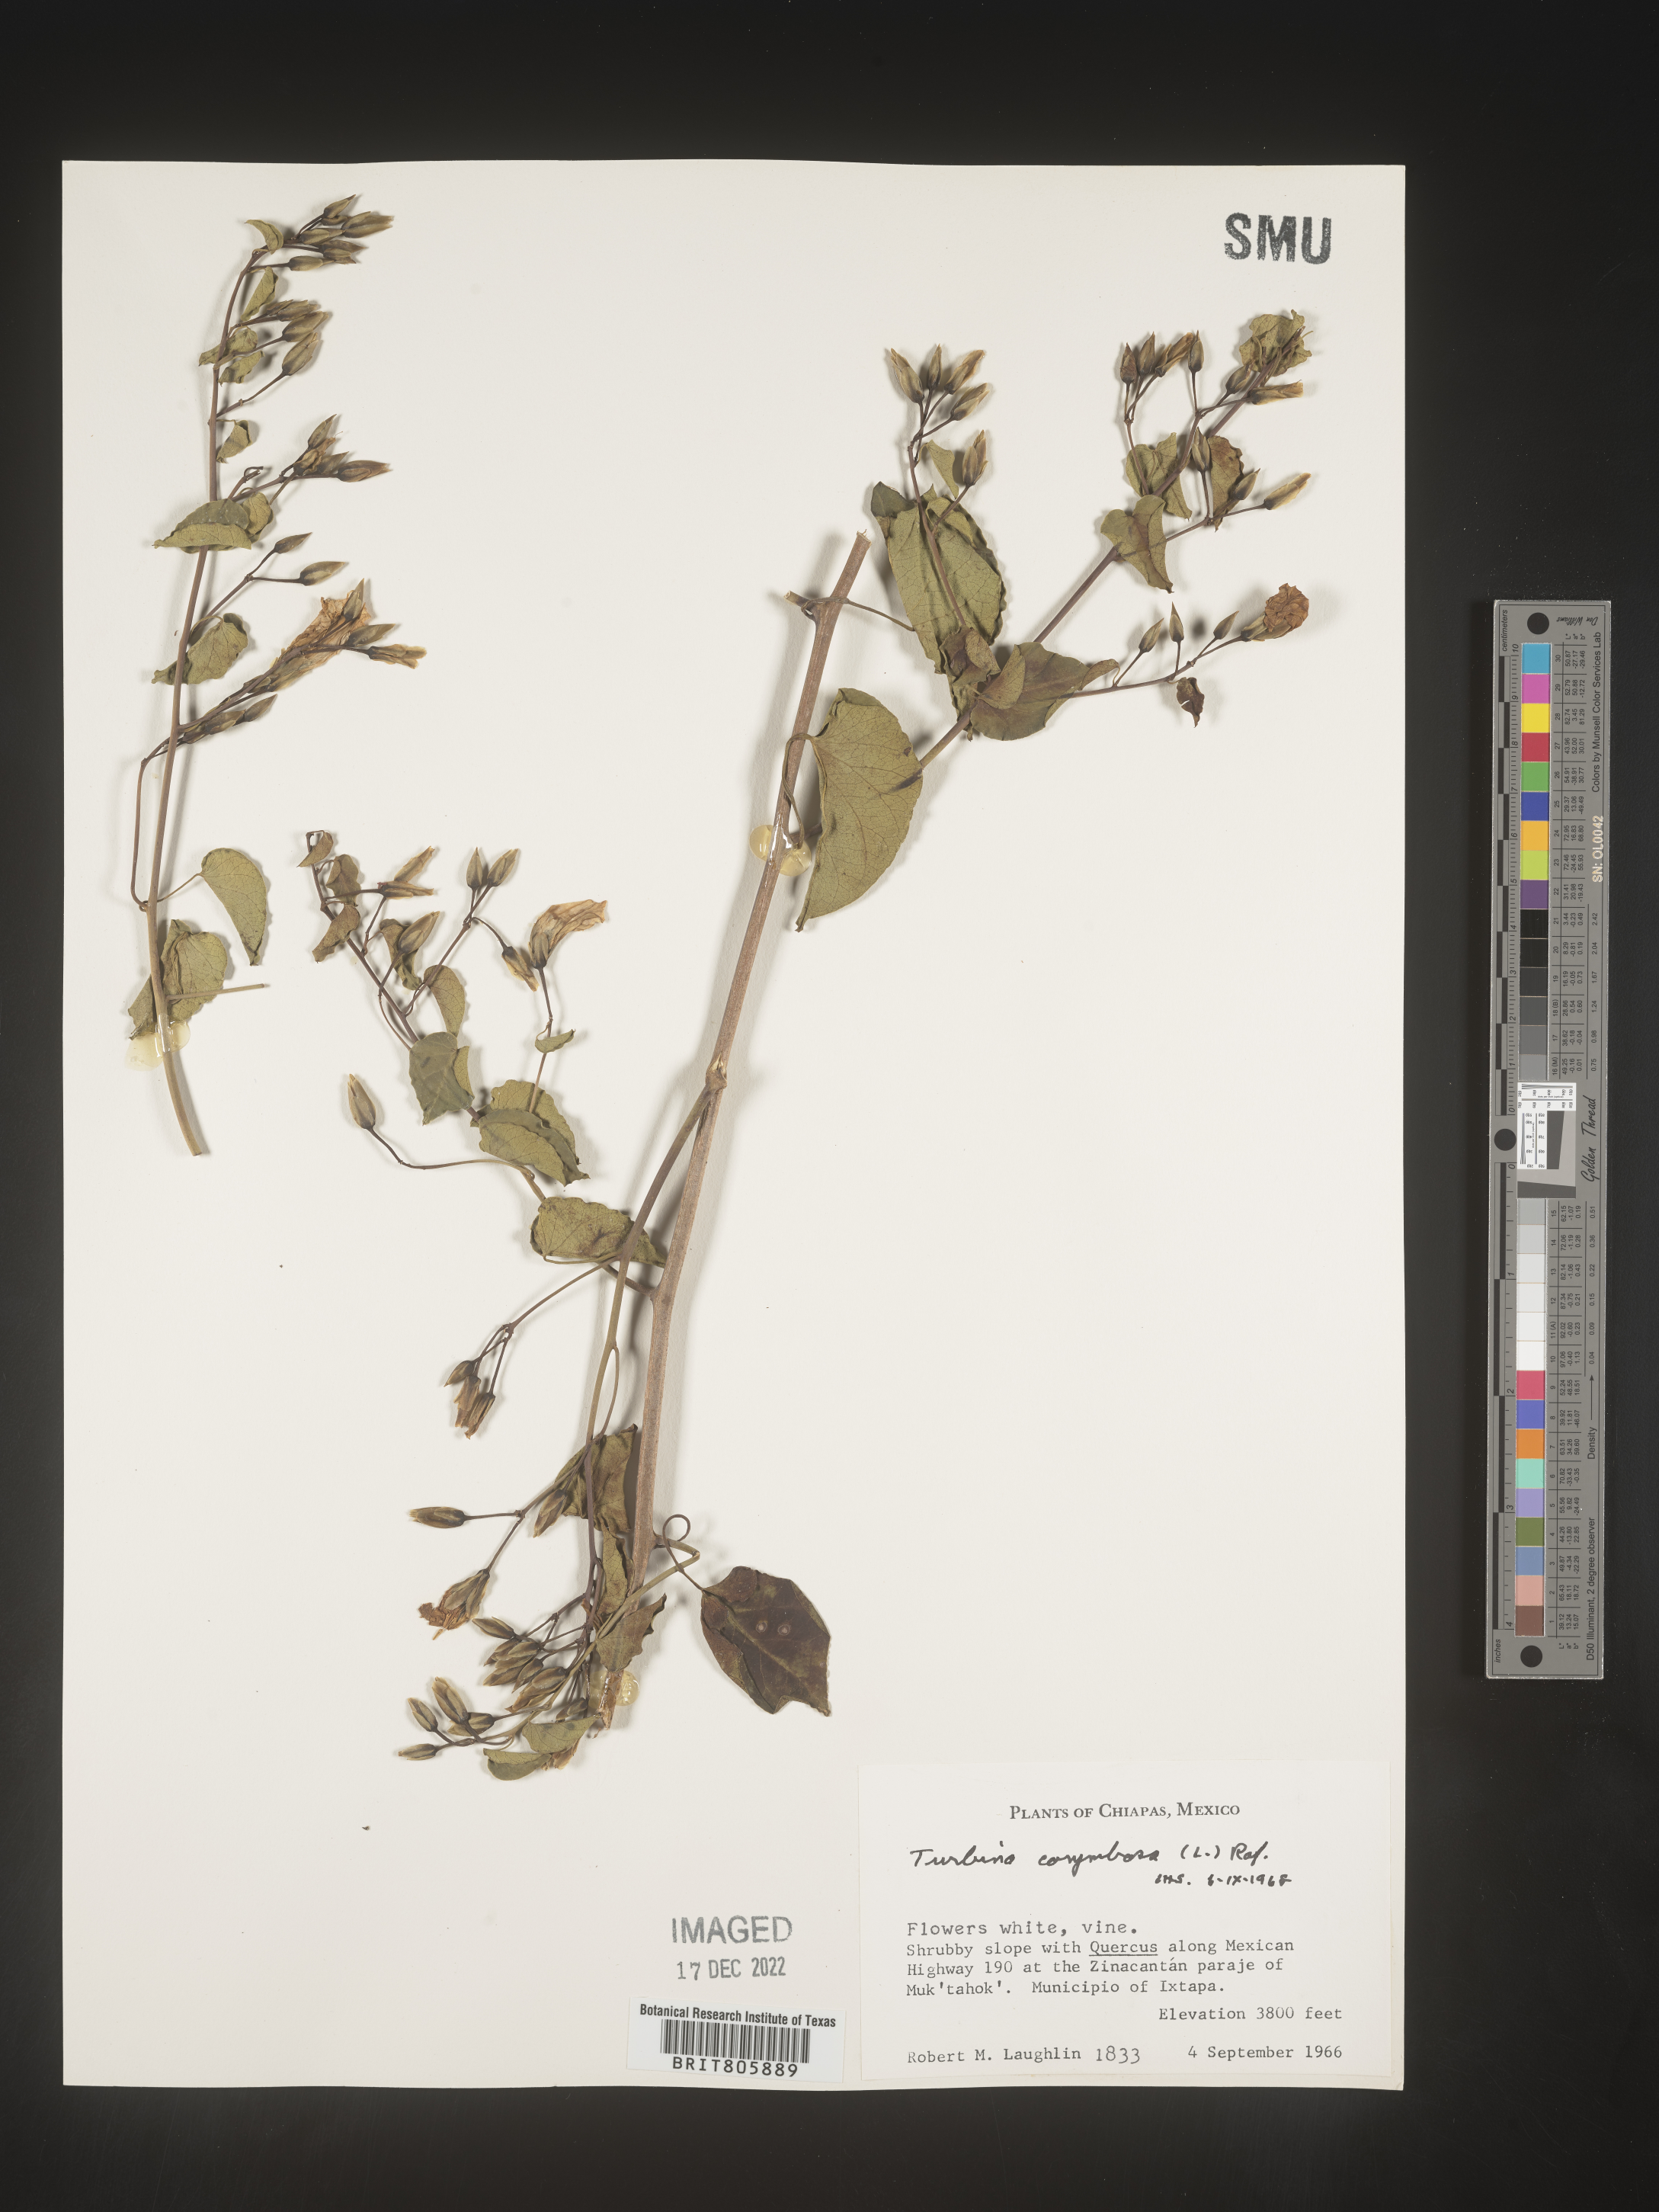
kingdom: Animalia
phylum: Mollusca
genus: Turbina
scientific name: Turbina
